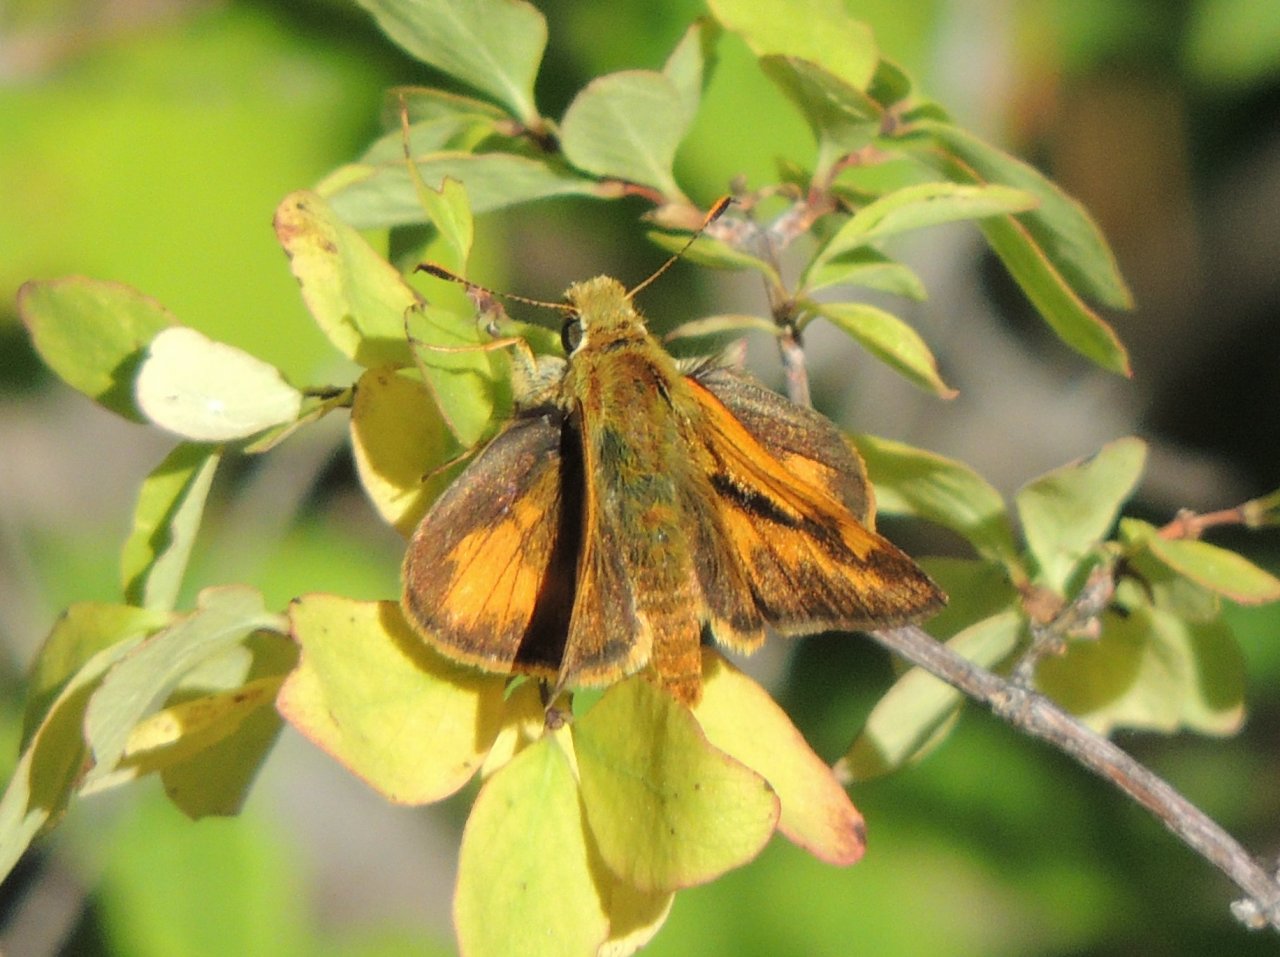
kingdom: Animalia
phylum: Arthropoda
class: Insecta
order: Lepidoptera
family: Hesperiidae
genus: Hesperia
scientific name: Hesperia comma
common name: Western Branded Skipper
